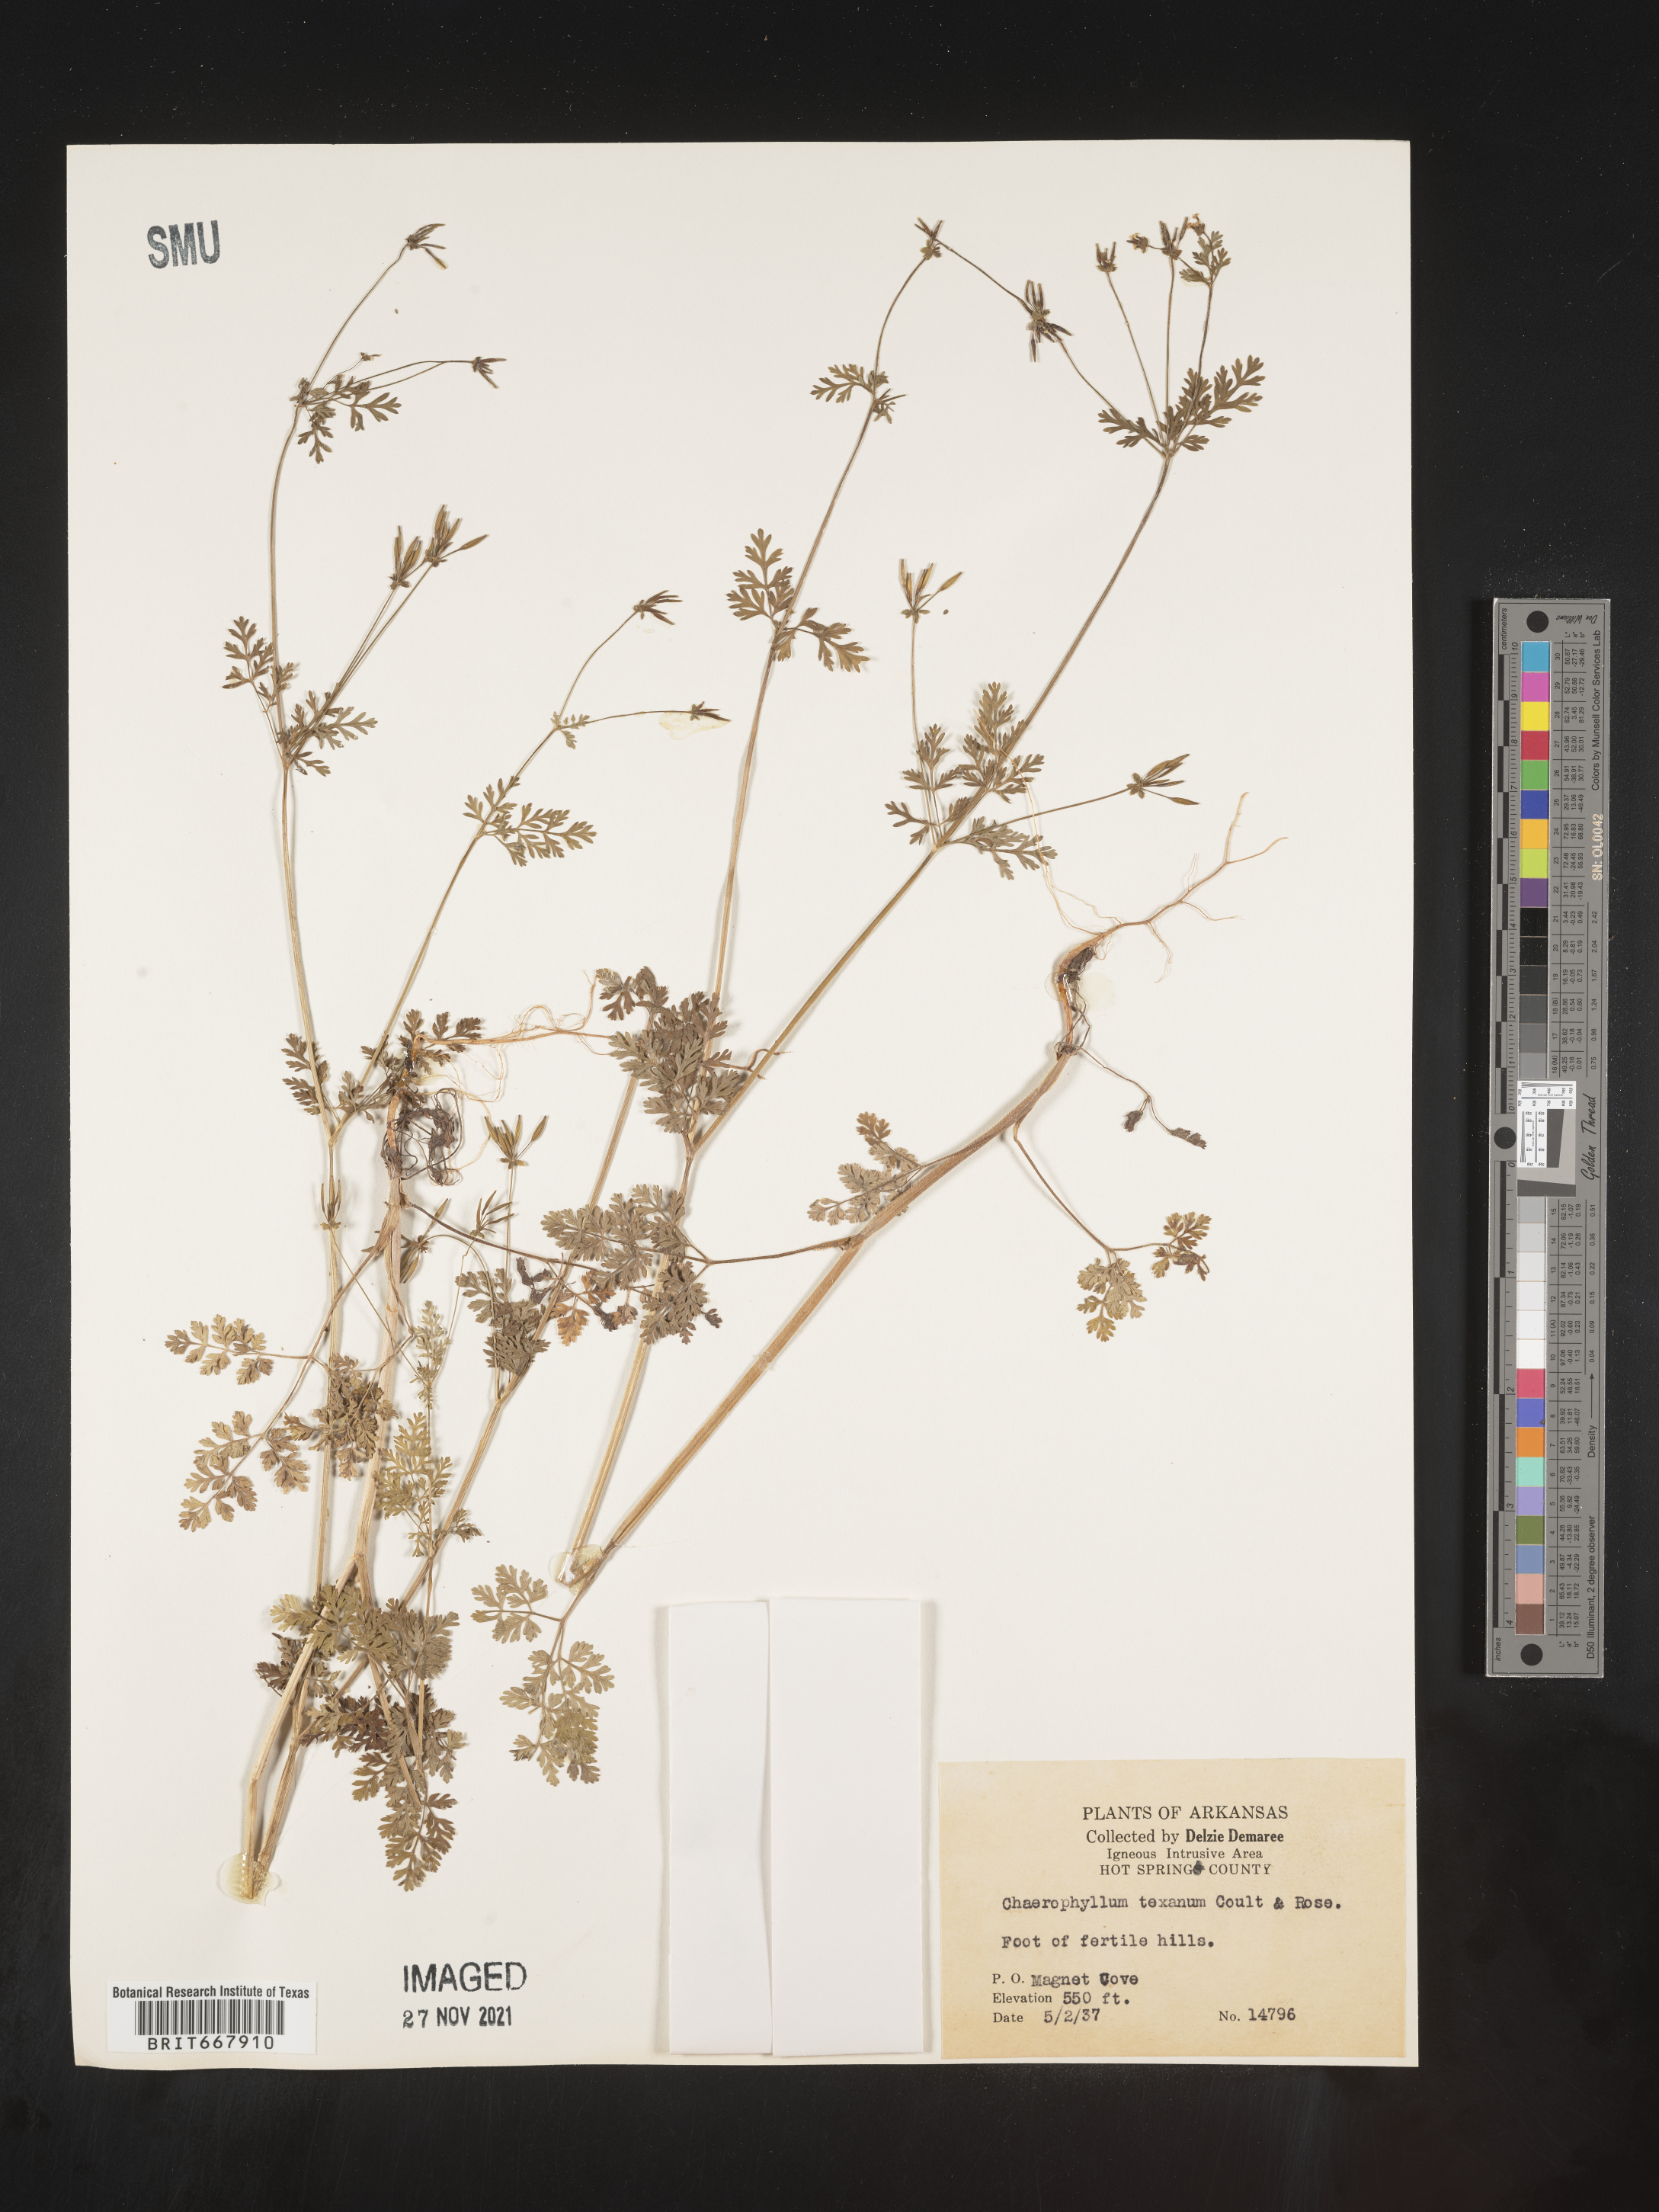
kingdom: Plantae
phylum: Tracheophyta
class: Magnoliopsida
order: Apiales
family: Apiaceae
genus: Chaerophyllum
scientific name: Chaerophyllum tainturieri
